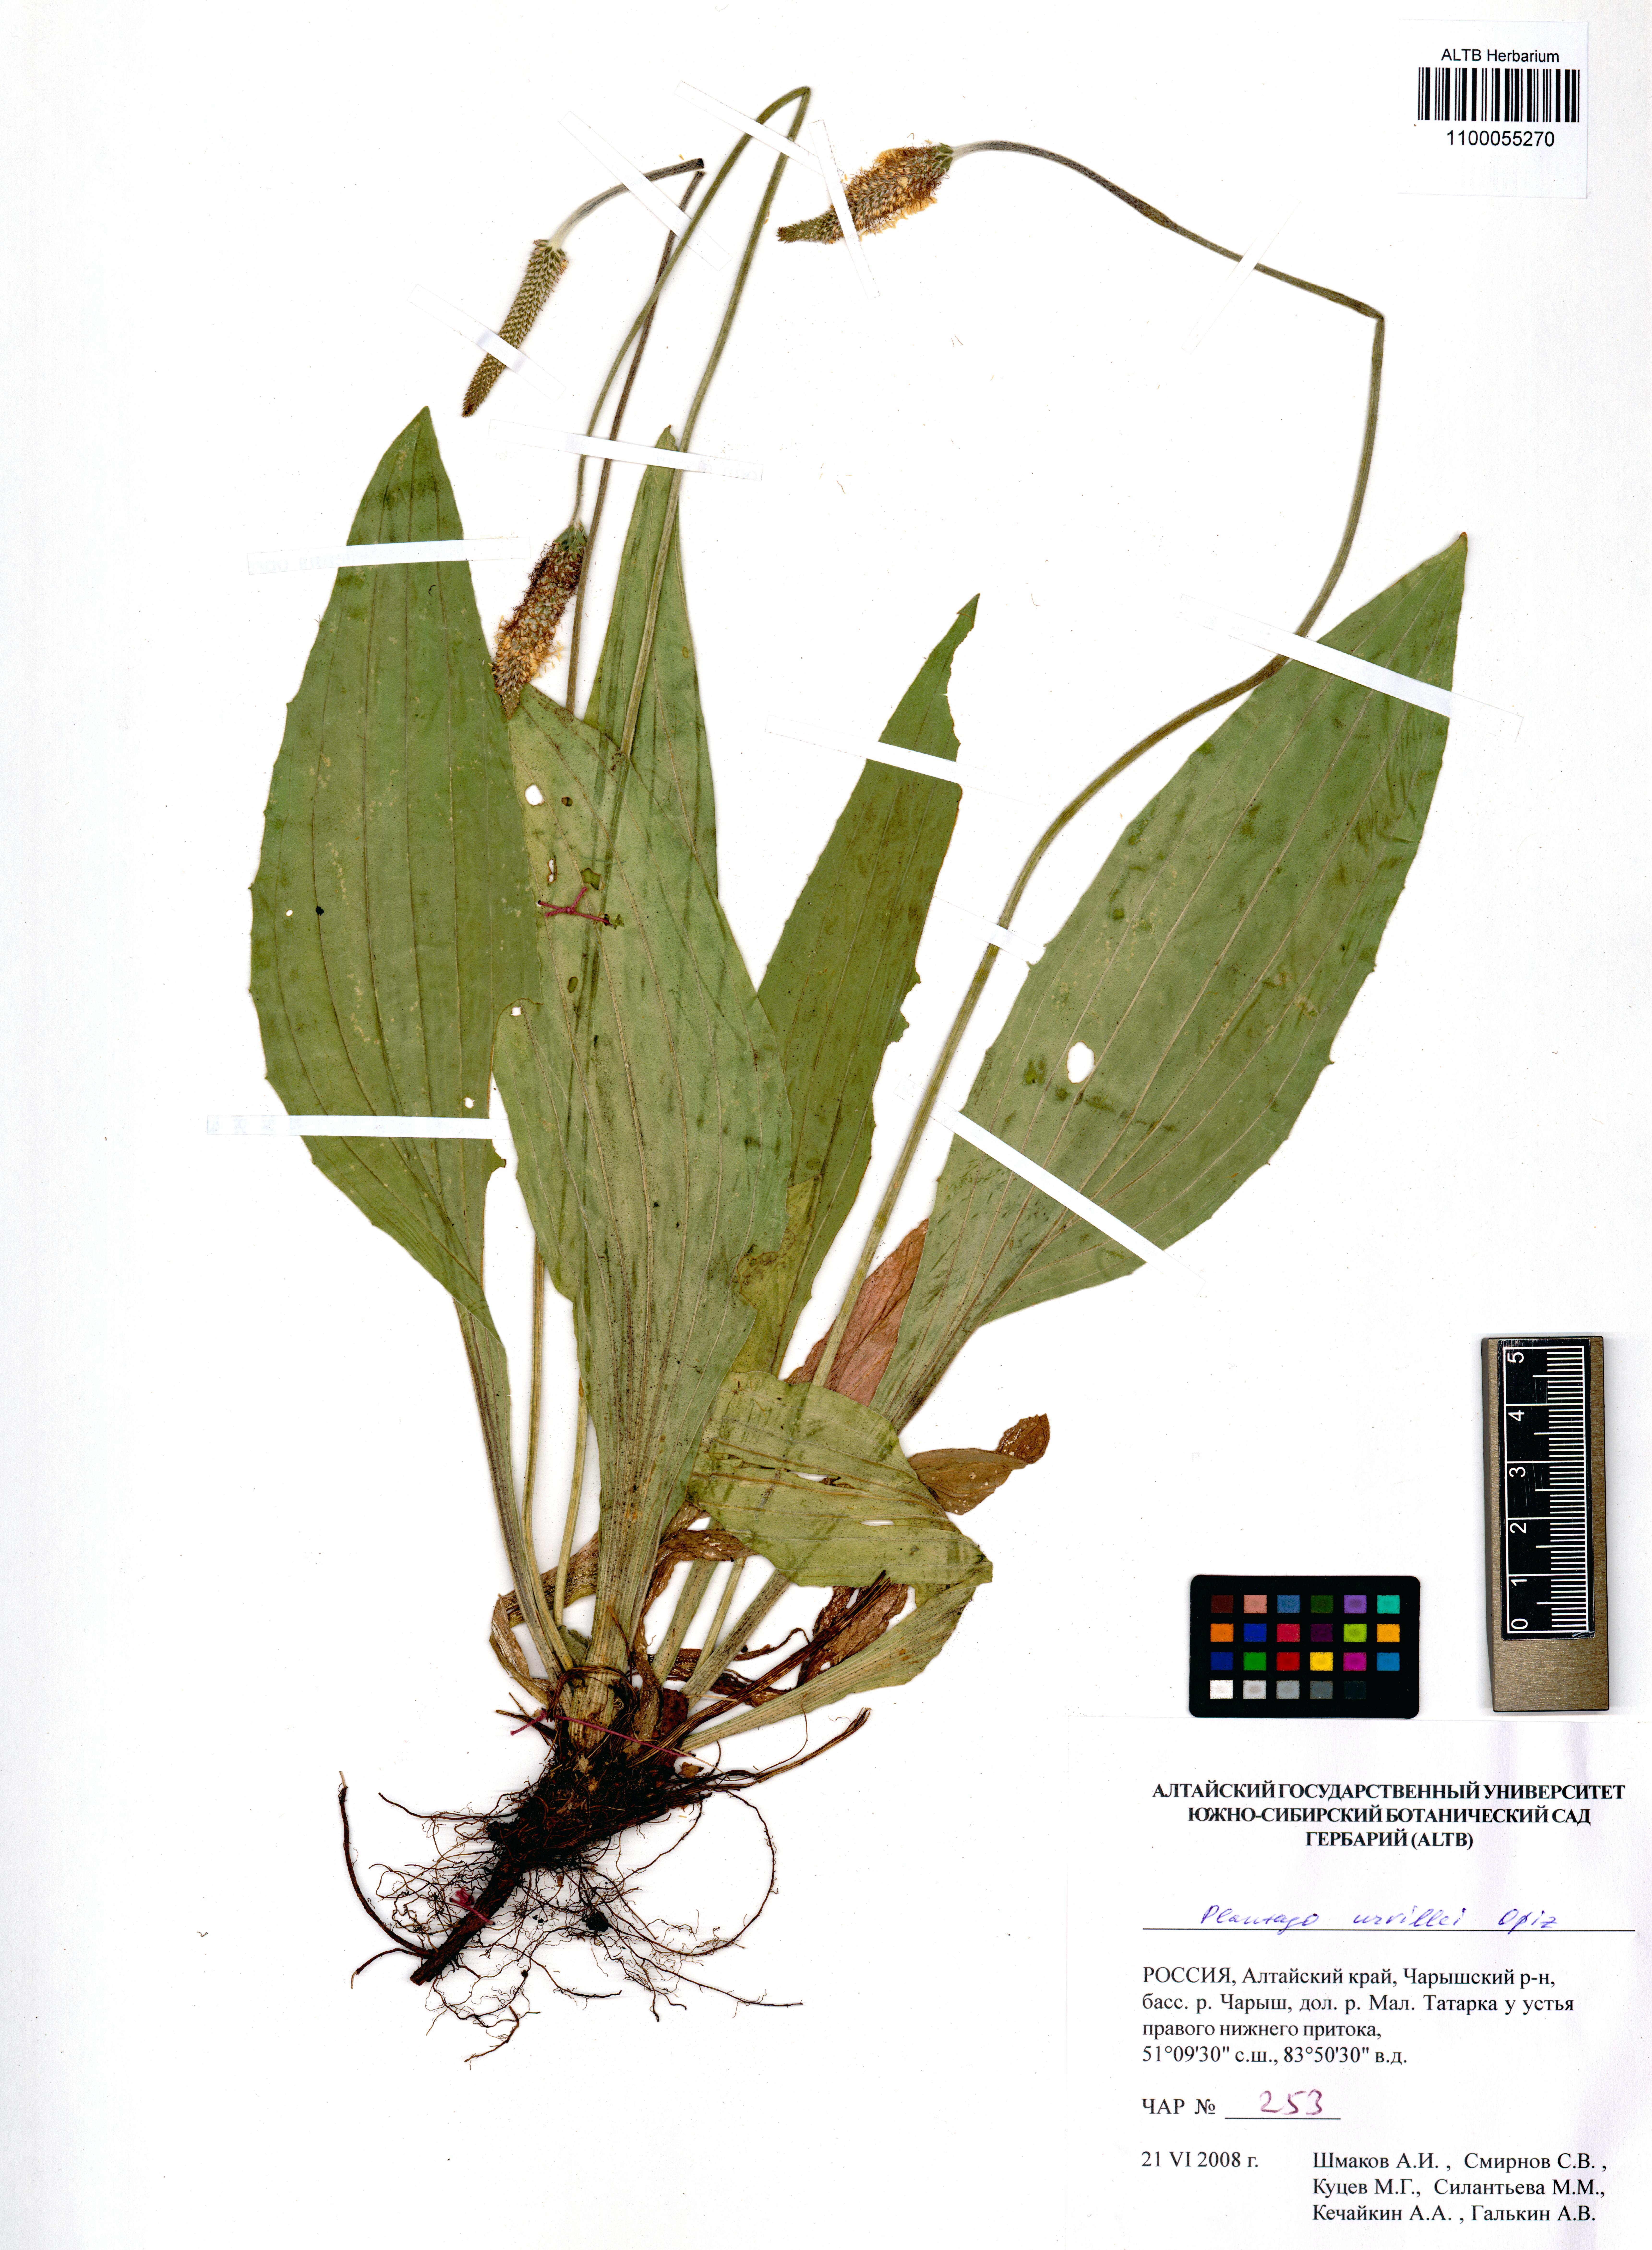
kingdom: Plantae
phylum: Tracheophyta
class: Magnoliopsida
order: Lamiales
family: Plantaginaceae
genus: Plantago
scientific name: Plantago urvillei
